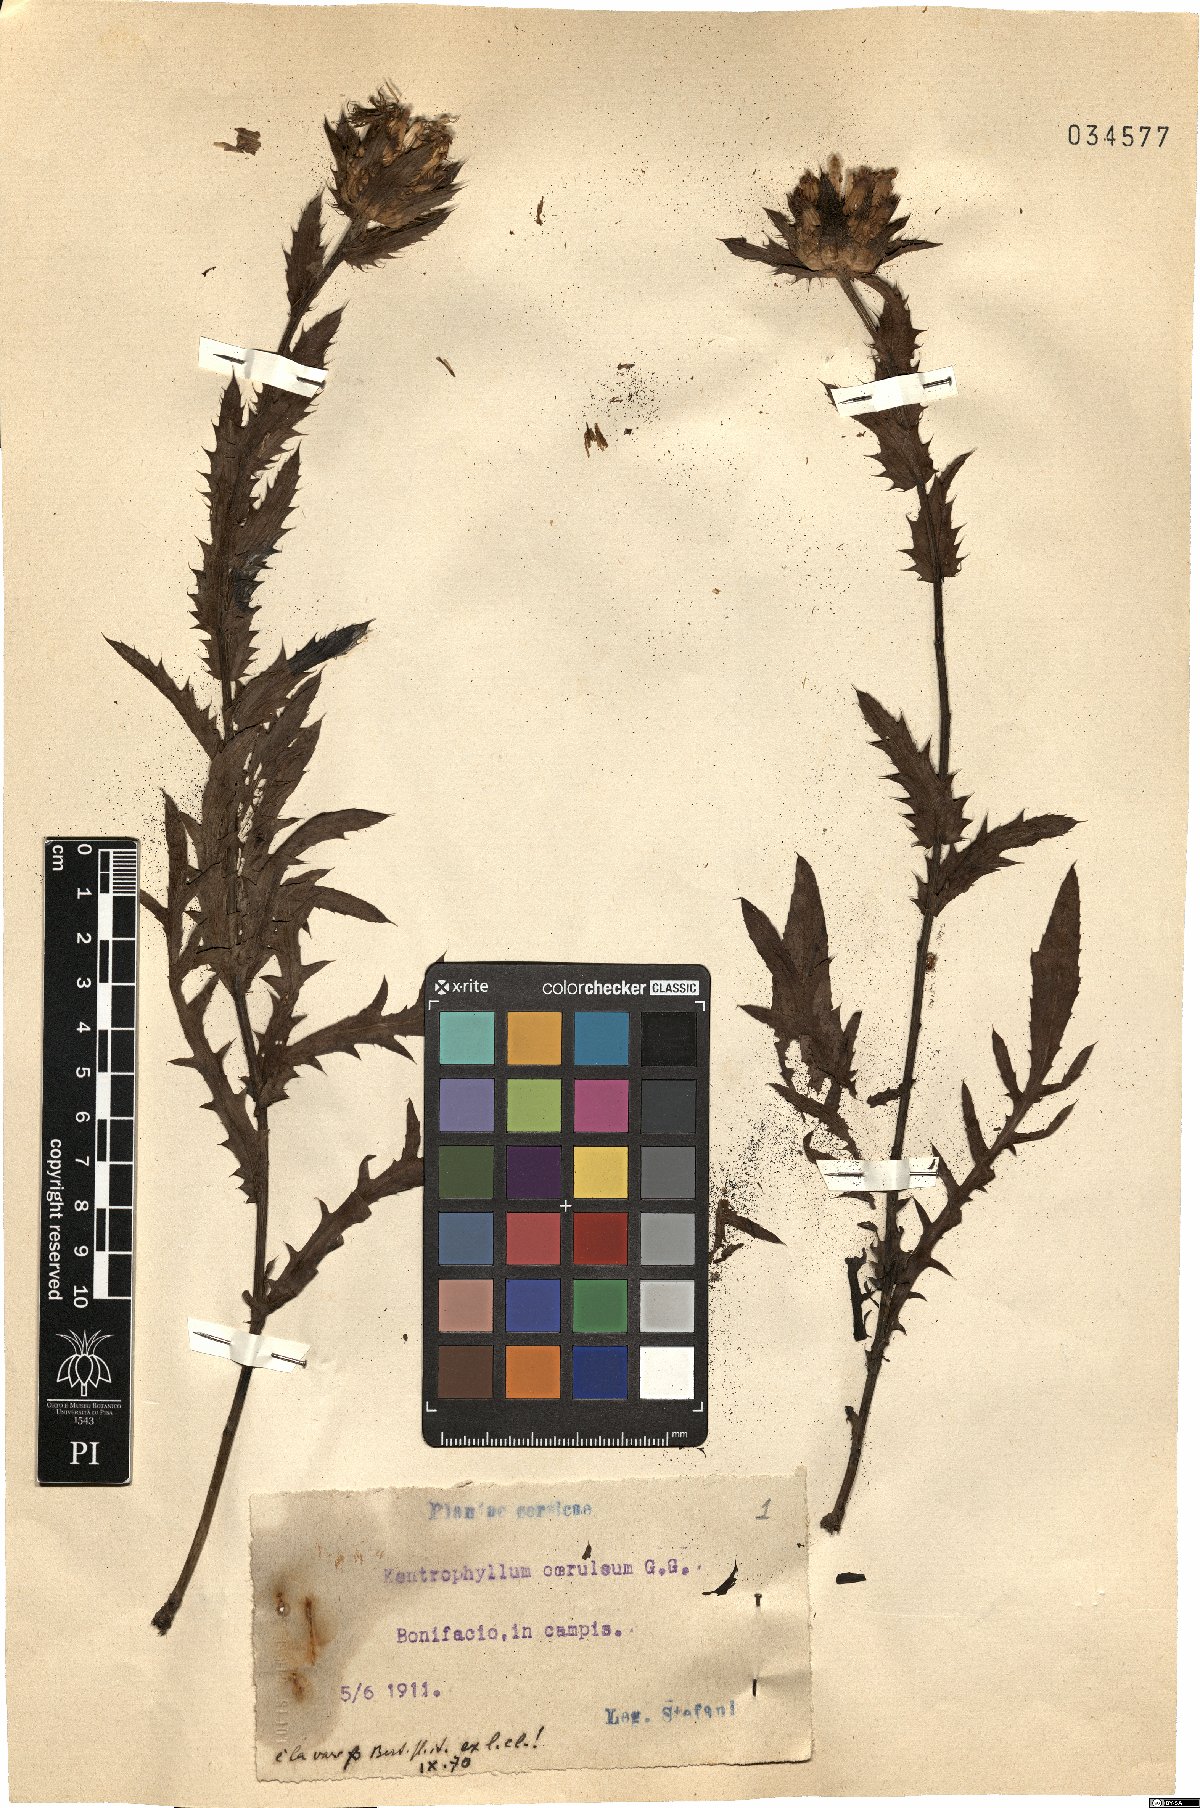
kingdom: Plantae
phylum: Tracheophyta
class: Magnoliopsida
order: Asterales
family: Asteraceae
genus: Carduncellus
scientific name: Carduncellus caeruleus
